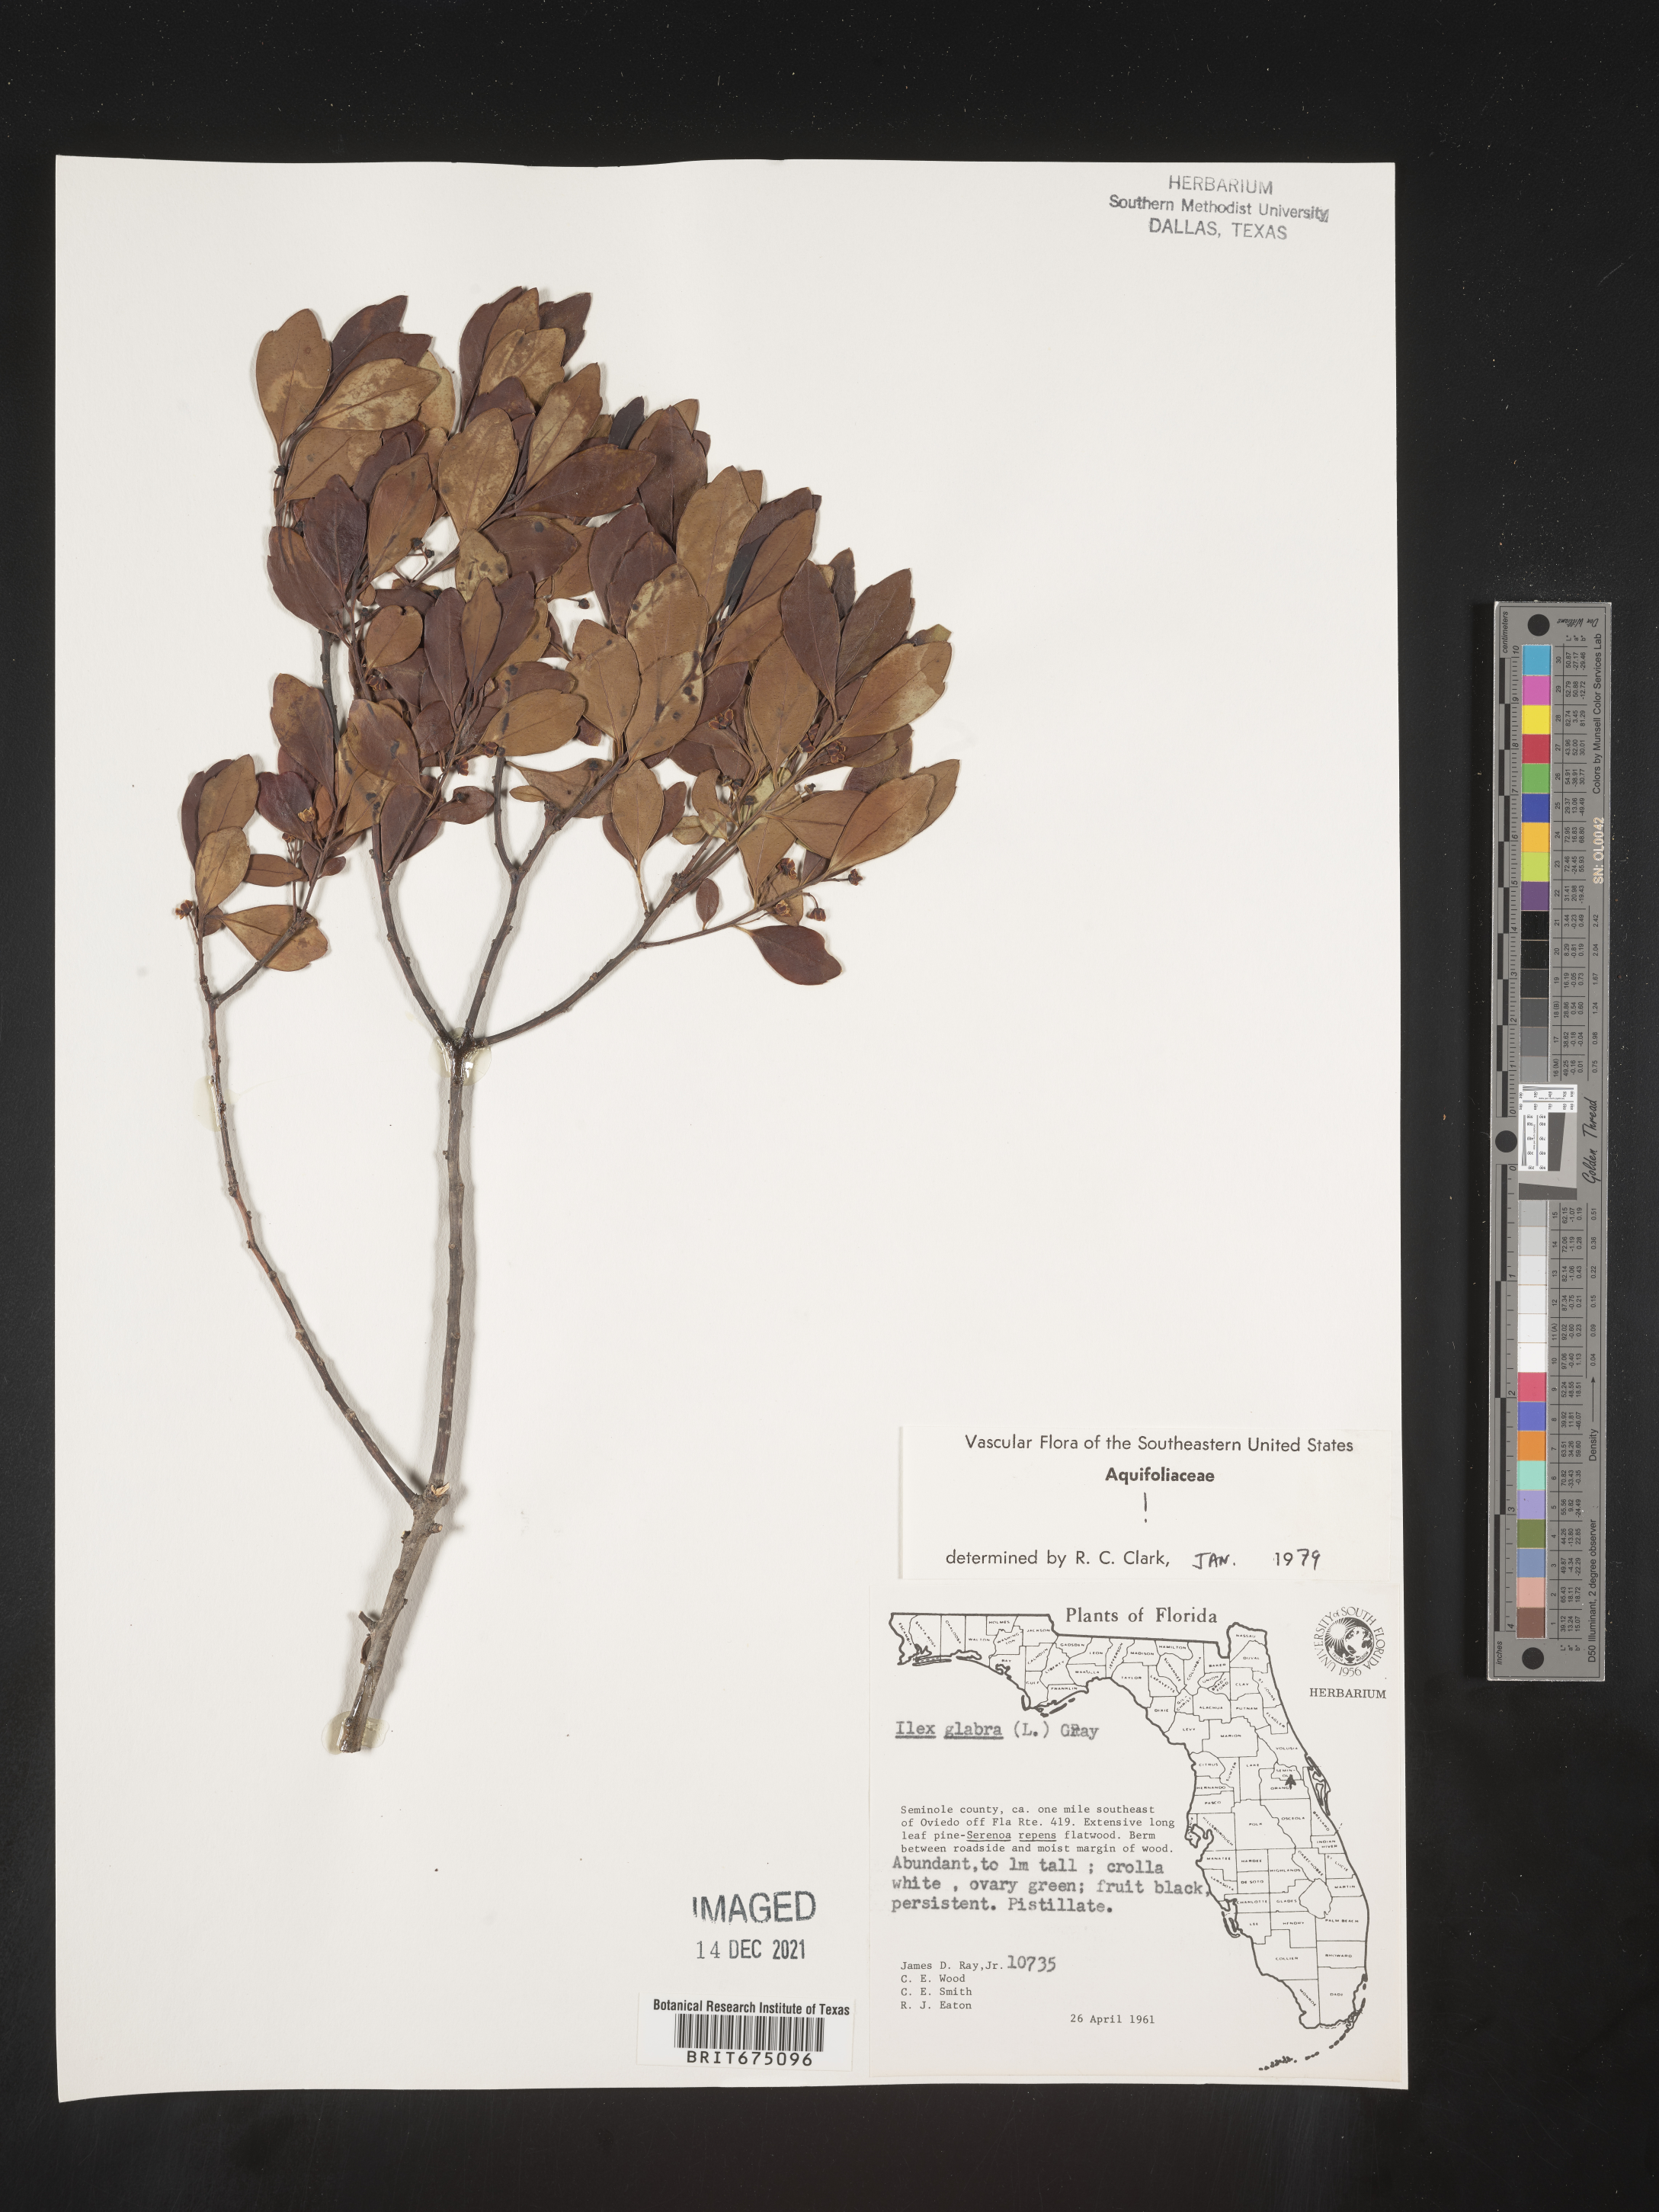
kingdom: Plantae
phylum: Tracheophyta
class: Magnoliopsida
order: Aquifoliales
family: Aquifoliaceae
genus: Ilex
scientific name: Ilex glabra
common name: Bitter gallberry
